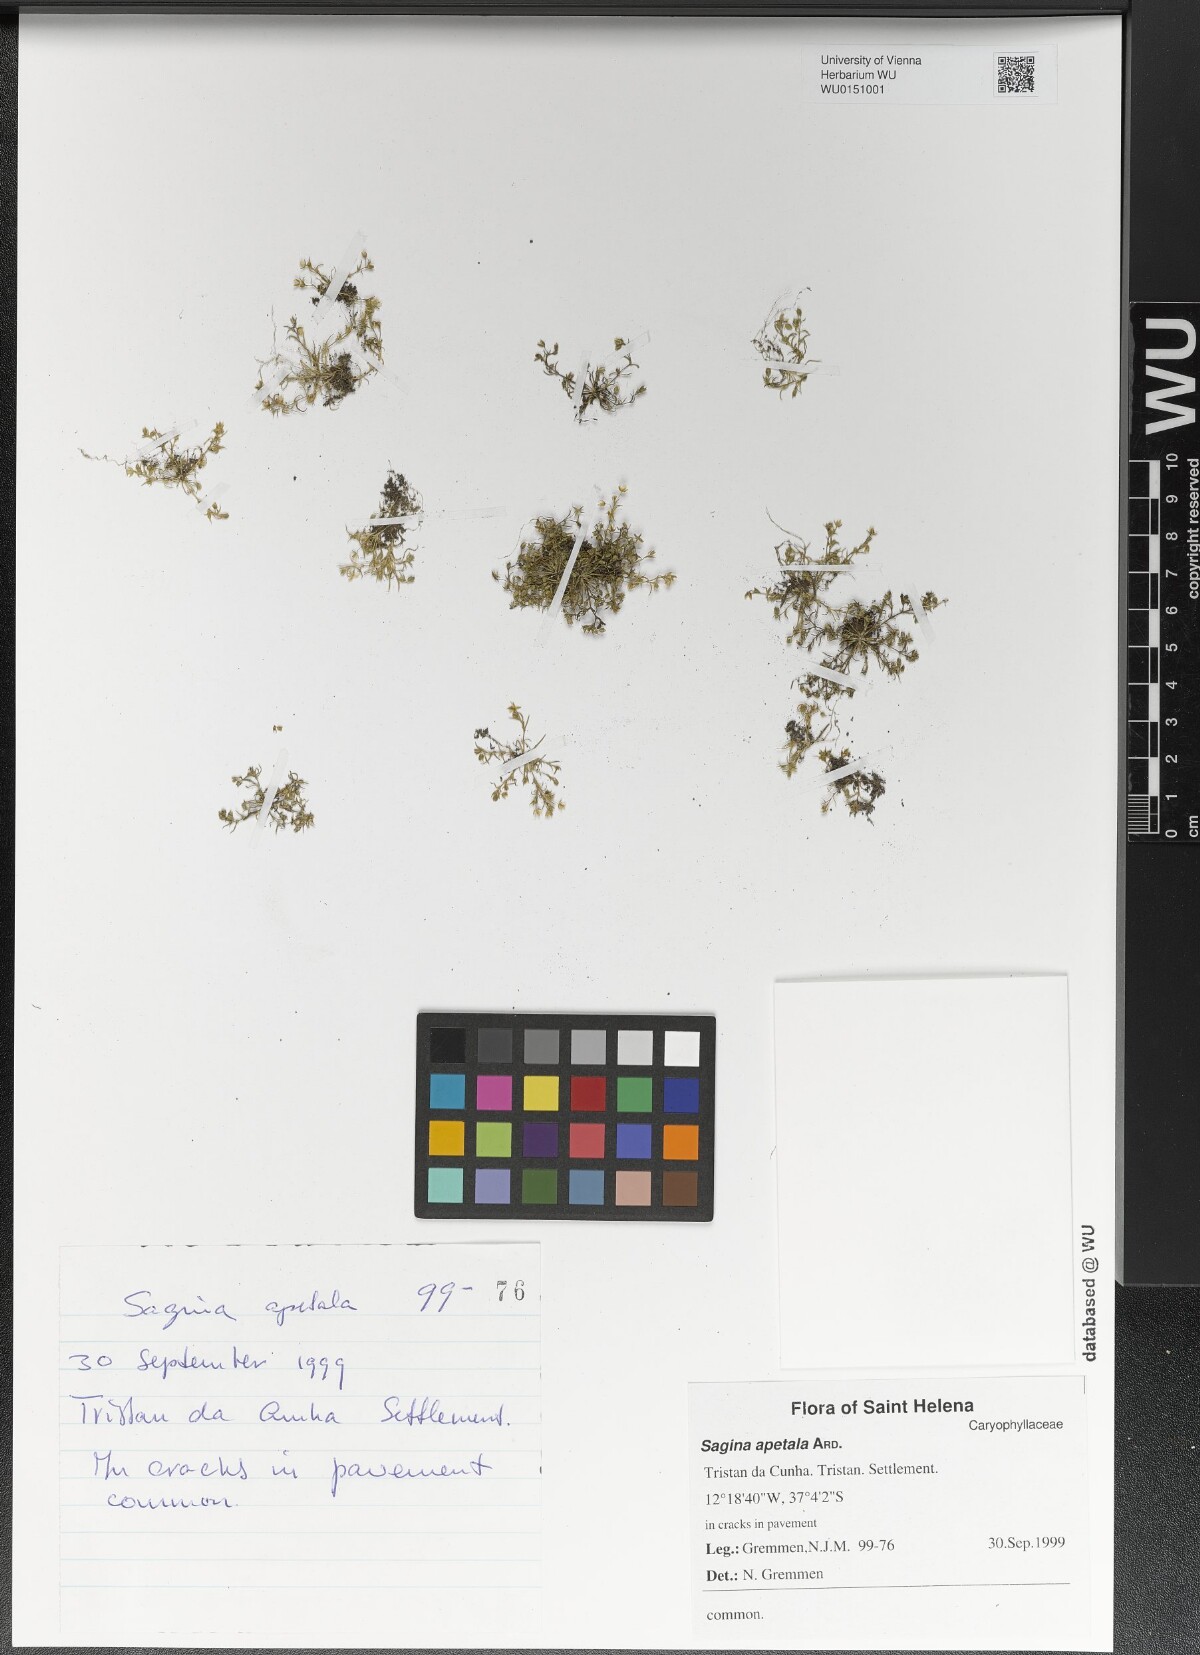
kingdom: Plantae
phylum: Tracheophyta
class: Magnoliopsida
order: Caryophyllales
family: Caryophyllaceae
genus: Sagina
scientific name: Sagina apetala
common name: Annual pearlwort
